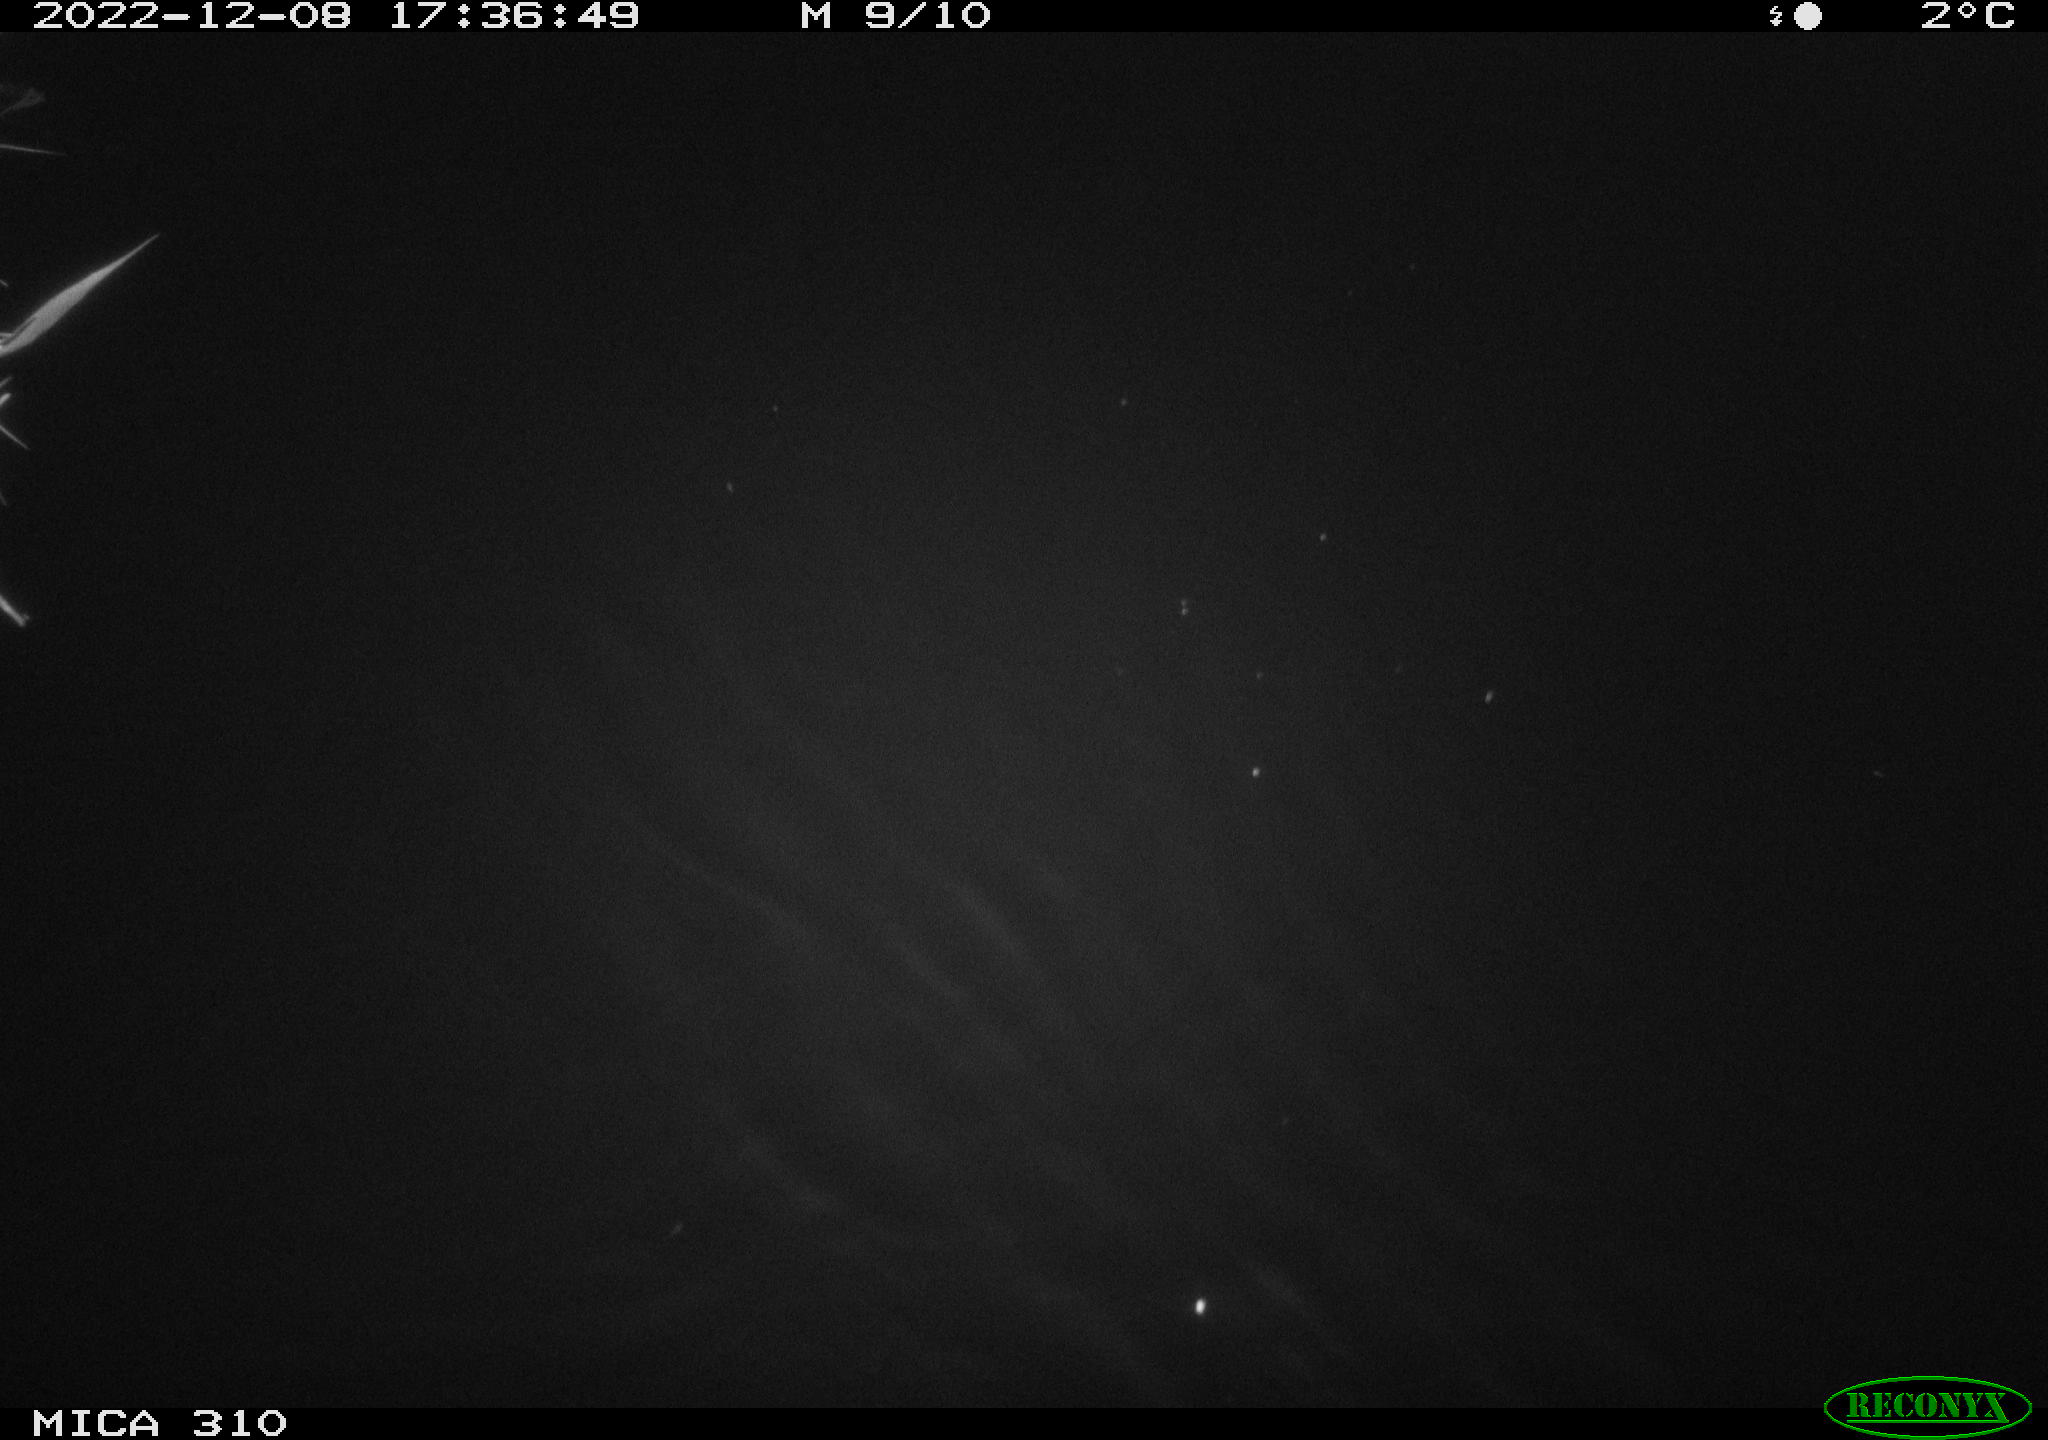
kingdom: Animalia
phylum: Chordata
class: Mammalia
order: Rodentia
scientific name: Rodentia
